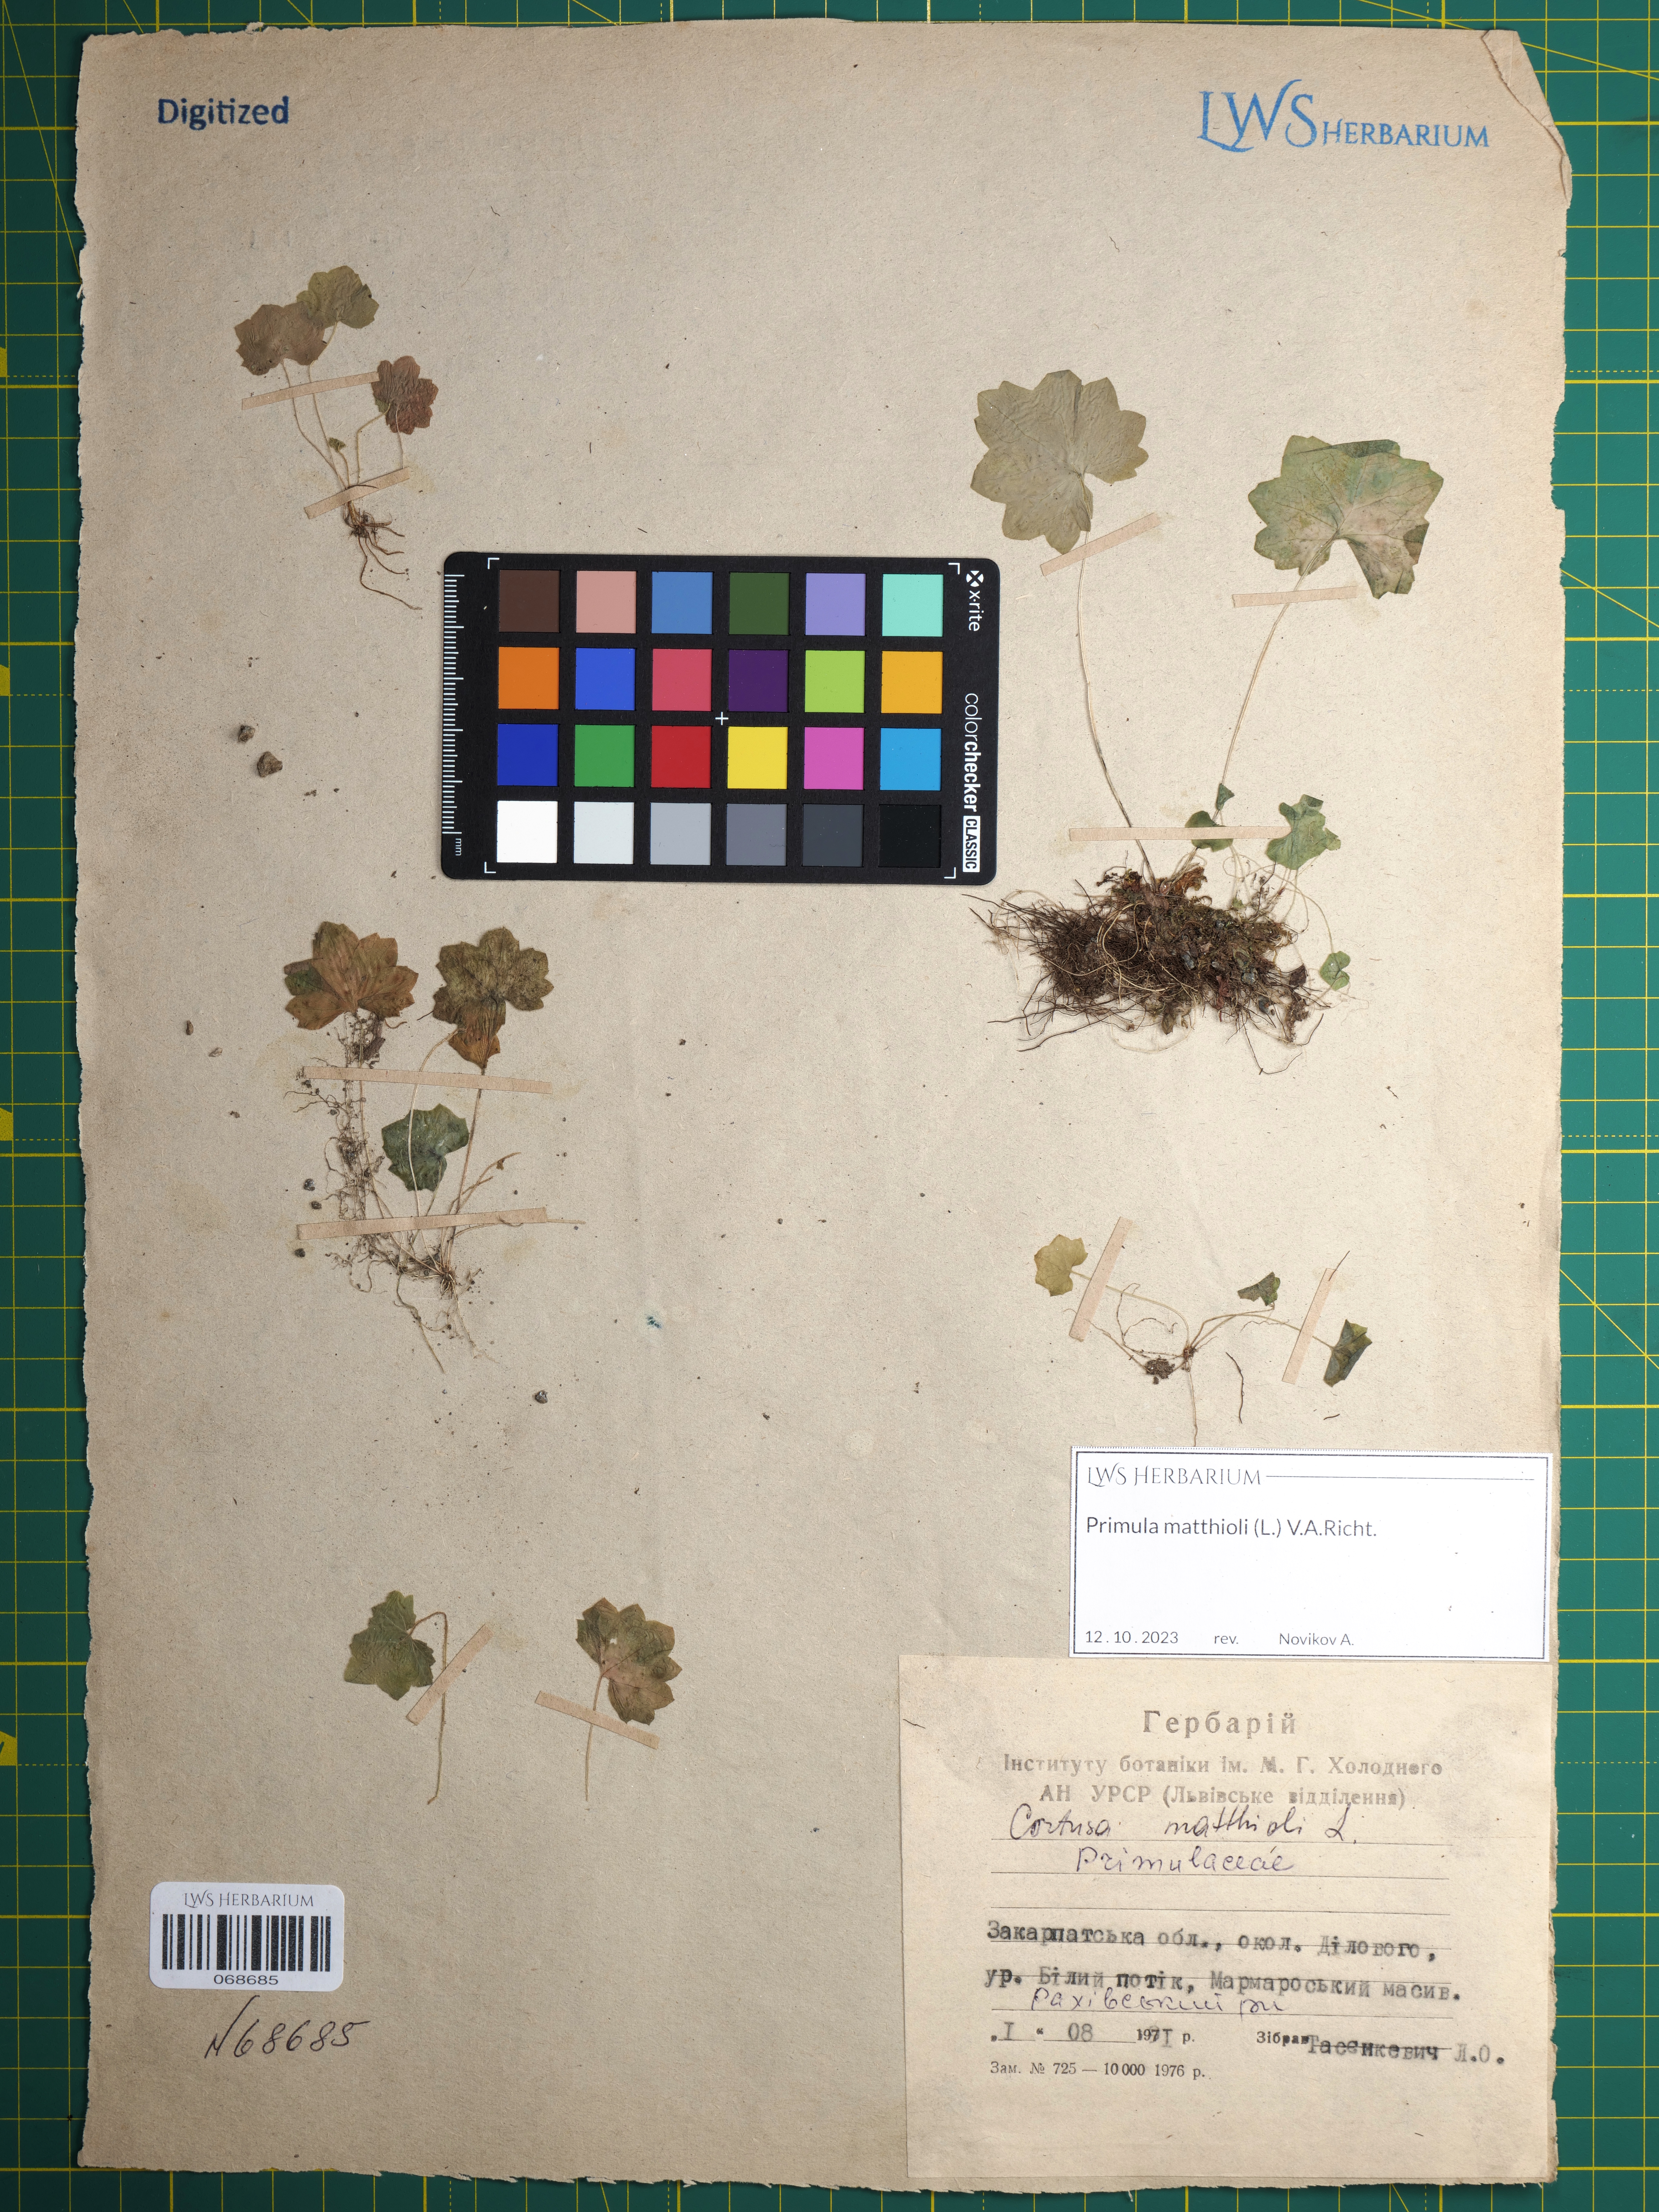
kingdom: Plantae
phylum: Tracheophyta
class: Magnoliopsida
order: Ericales
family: Primulaceae
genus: Primula
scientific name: Primula matthioli
